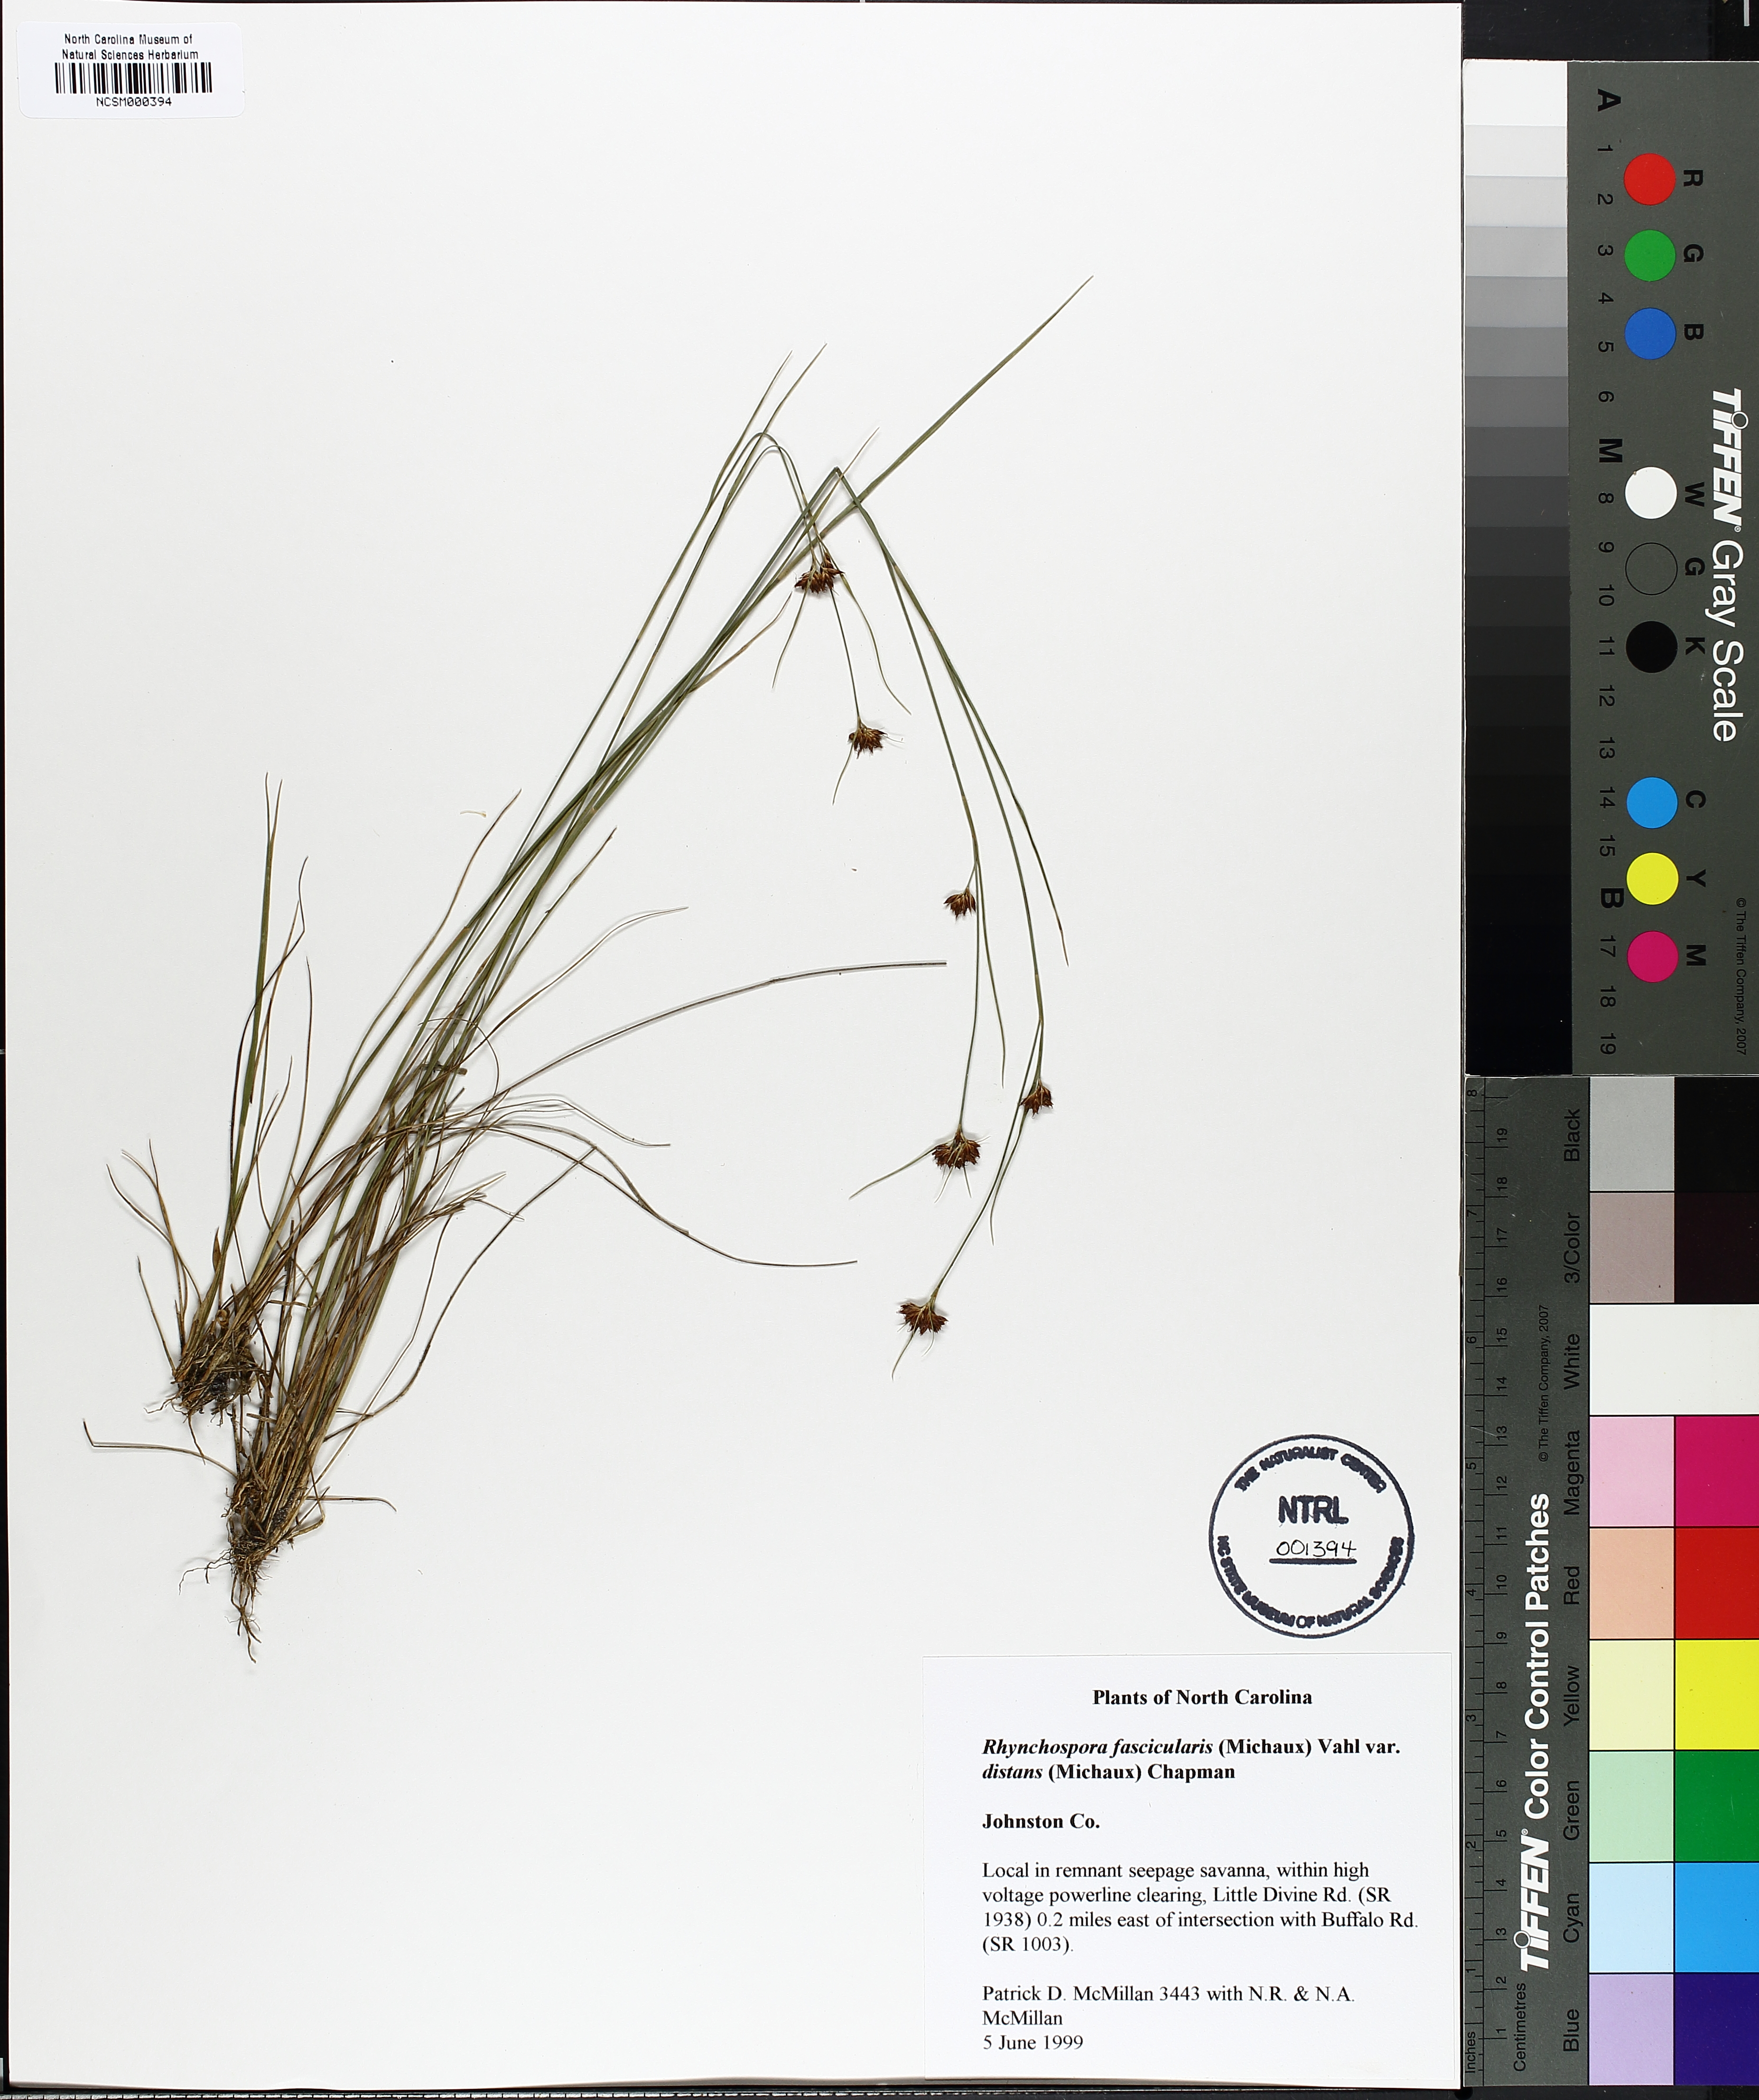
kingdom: Plantae
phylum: Tracheophyta
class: Liliopsida
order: Poales
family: Cyperaceae
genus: Rhynchospora
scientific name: Rhynchospora fascicularis
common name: Fascicled beak sedge
